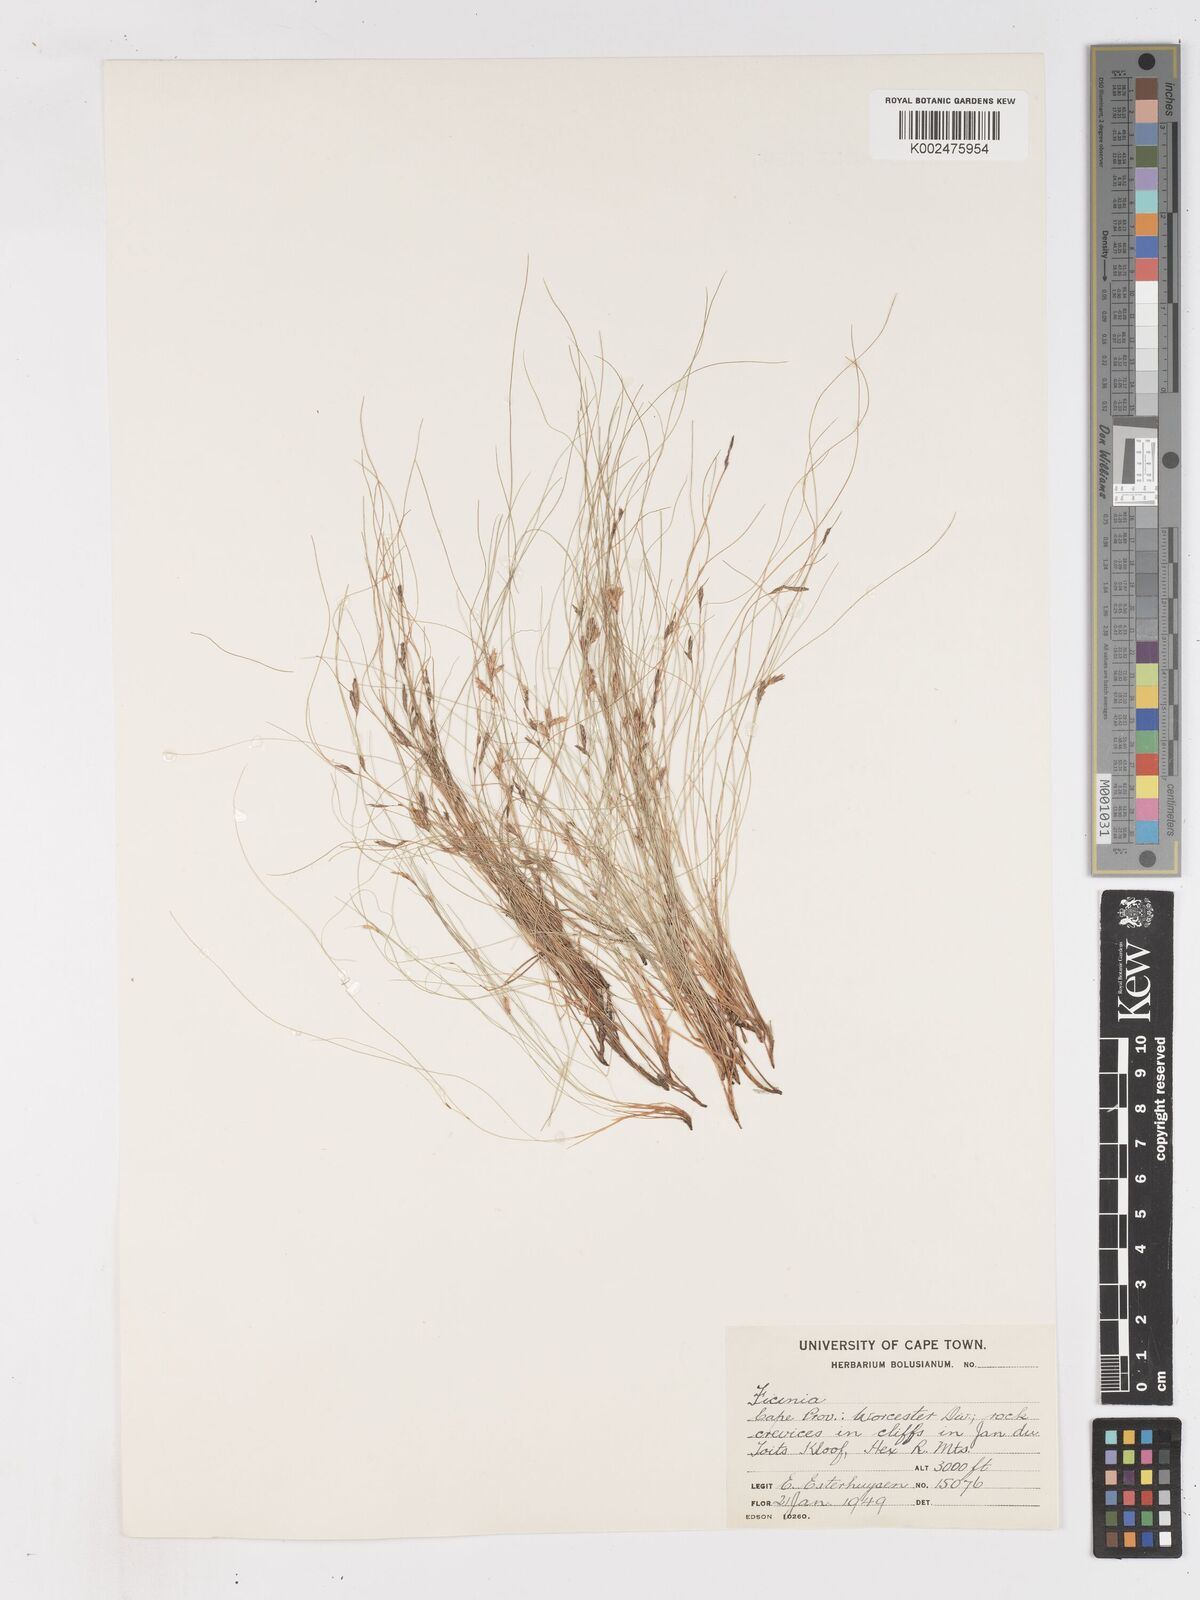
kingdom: Plantae
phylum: Tracheophyta
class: Liliopsida
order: Poales
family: Cyperaceae
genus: Ficinia
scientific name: Ficinia esterhuyseniae
